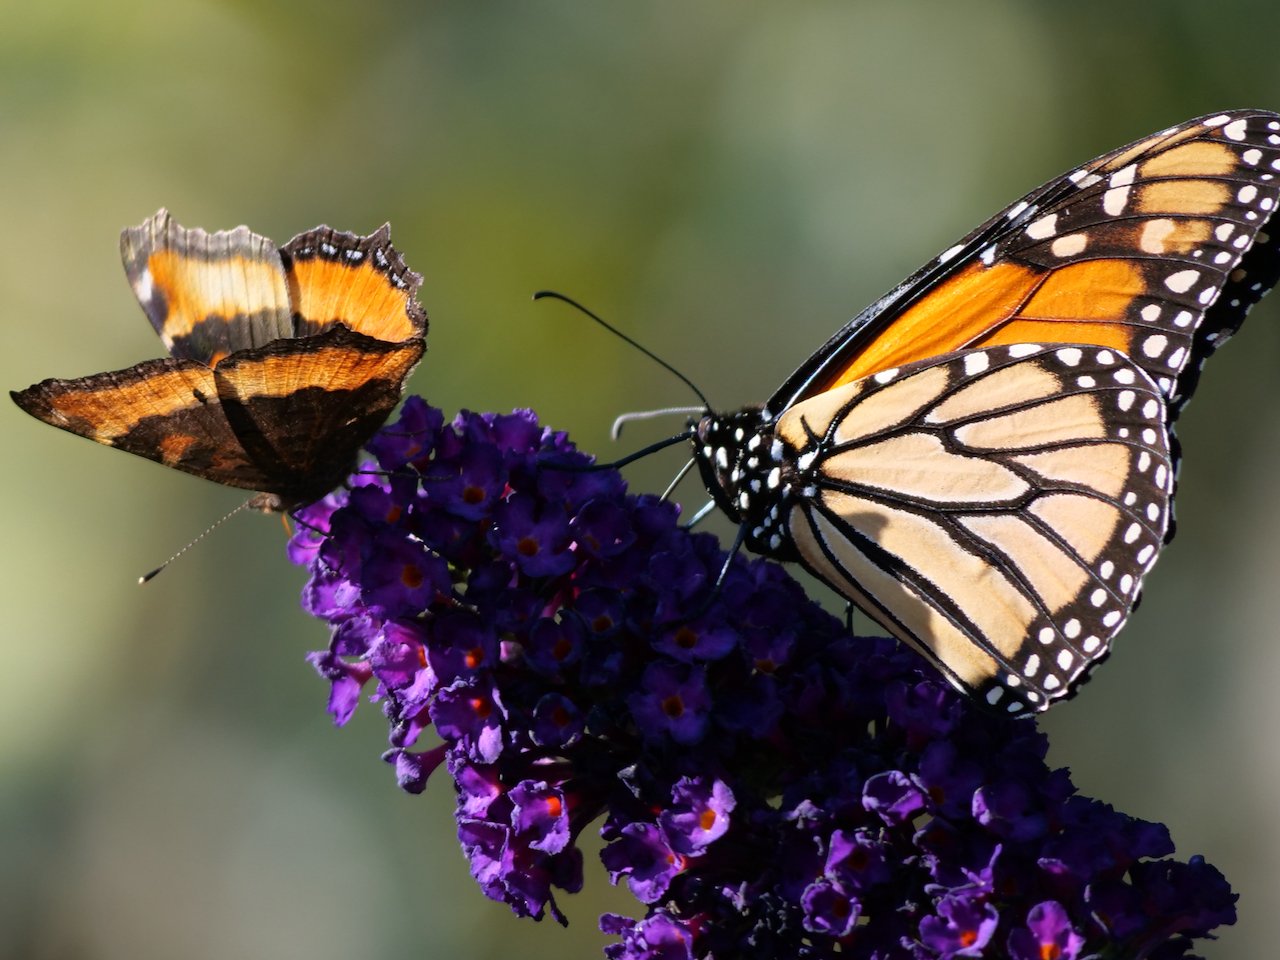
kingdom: Animalia
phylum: Arthropoda
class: Insecta
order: Lepidoptera
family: Nymphalidae
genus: Danaus
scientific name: Danaus plexippus
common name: Monarch
